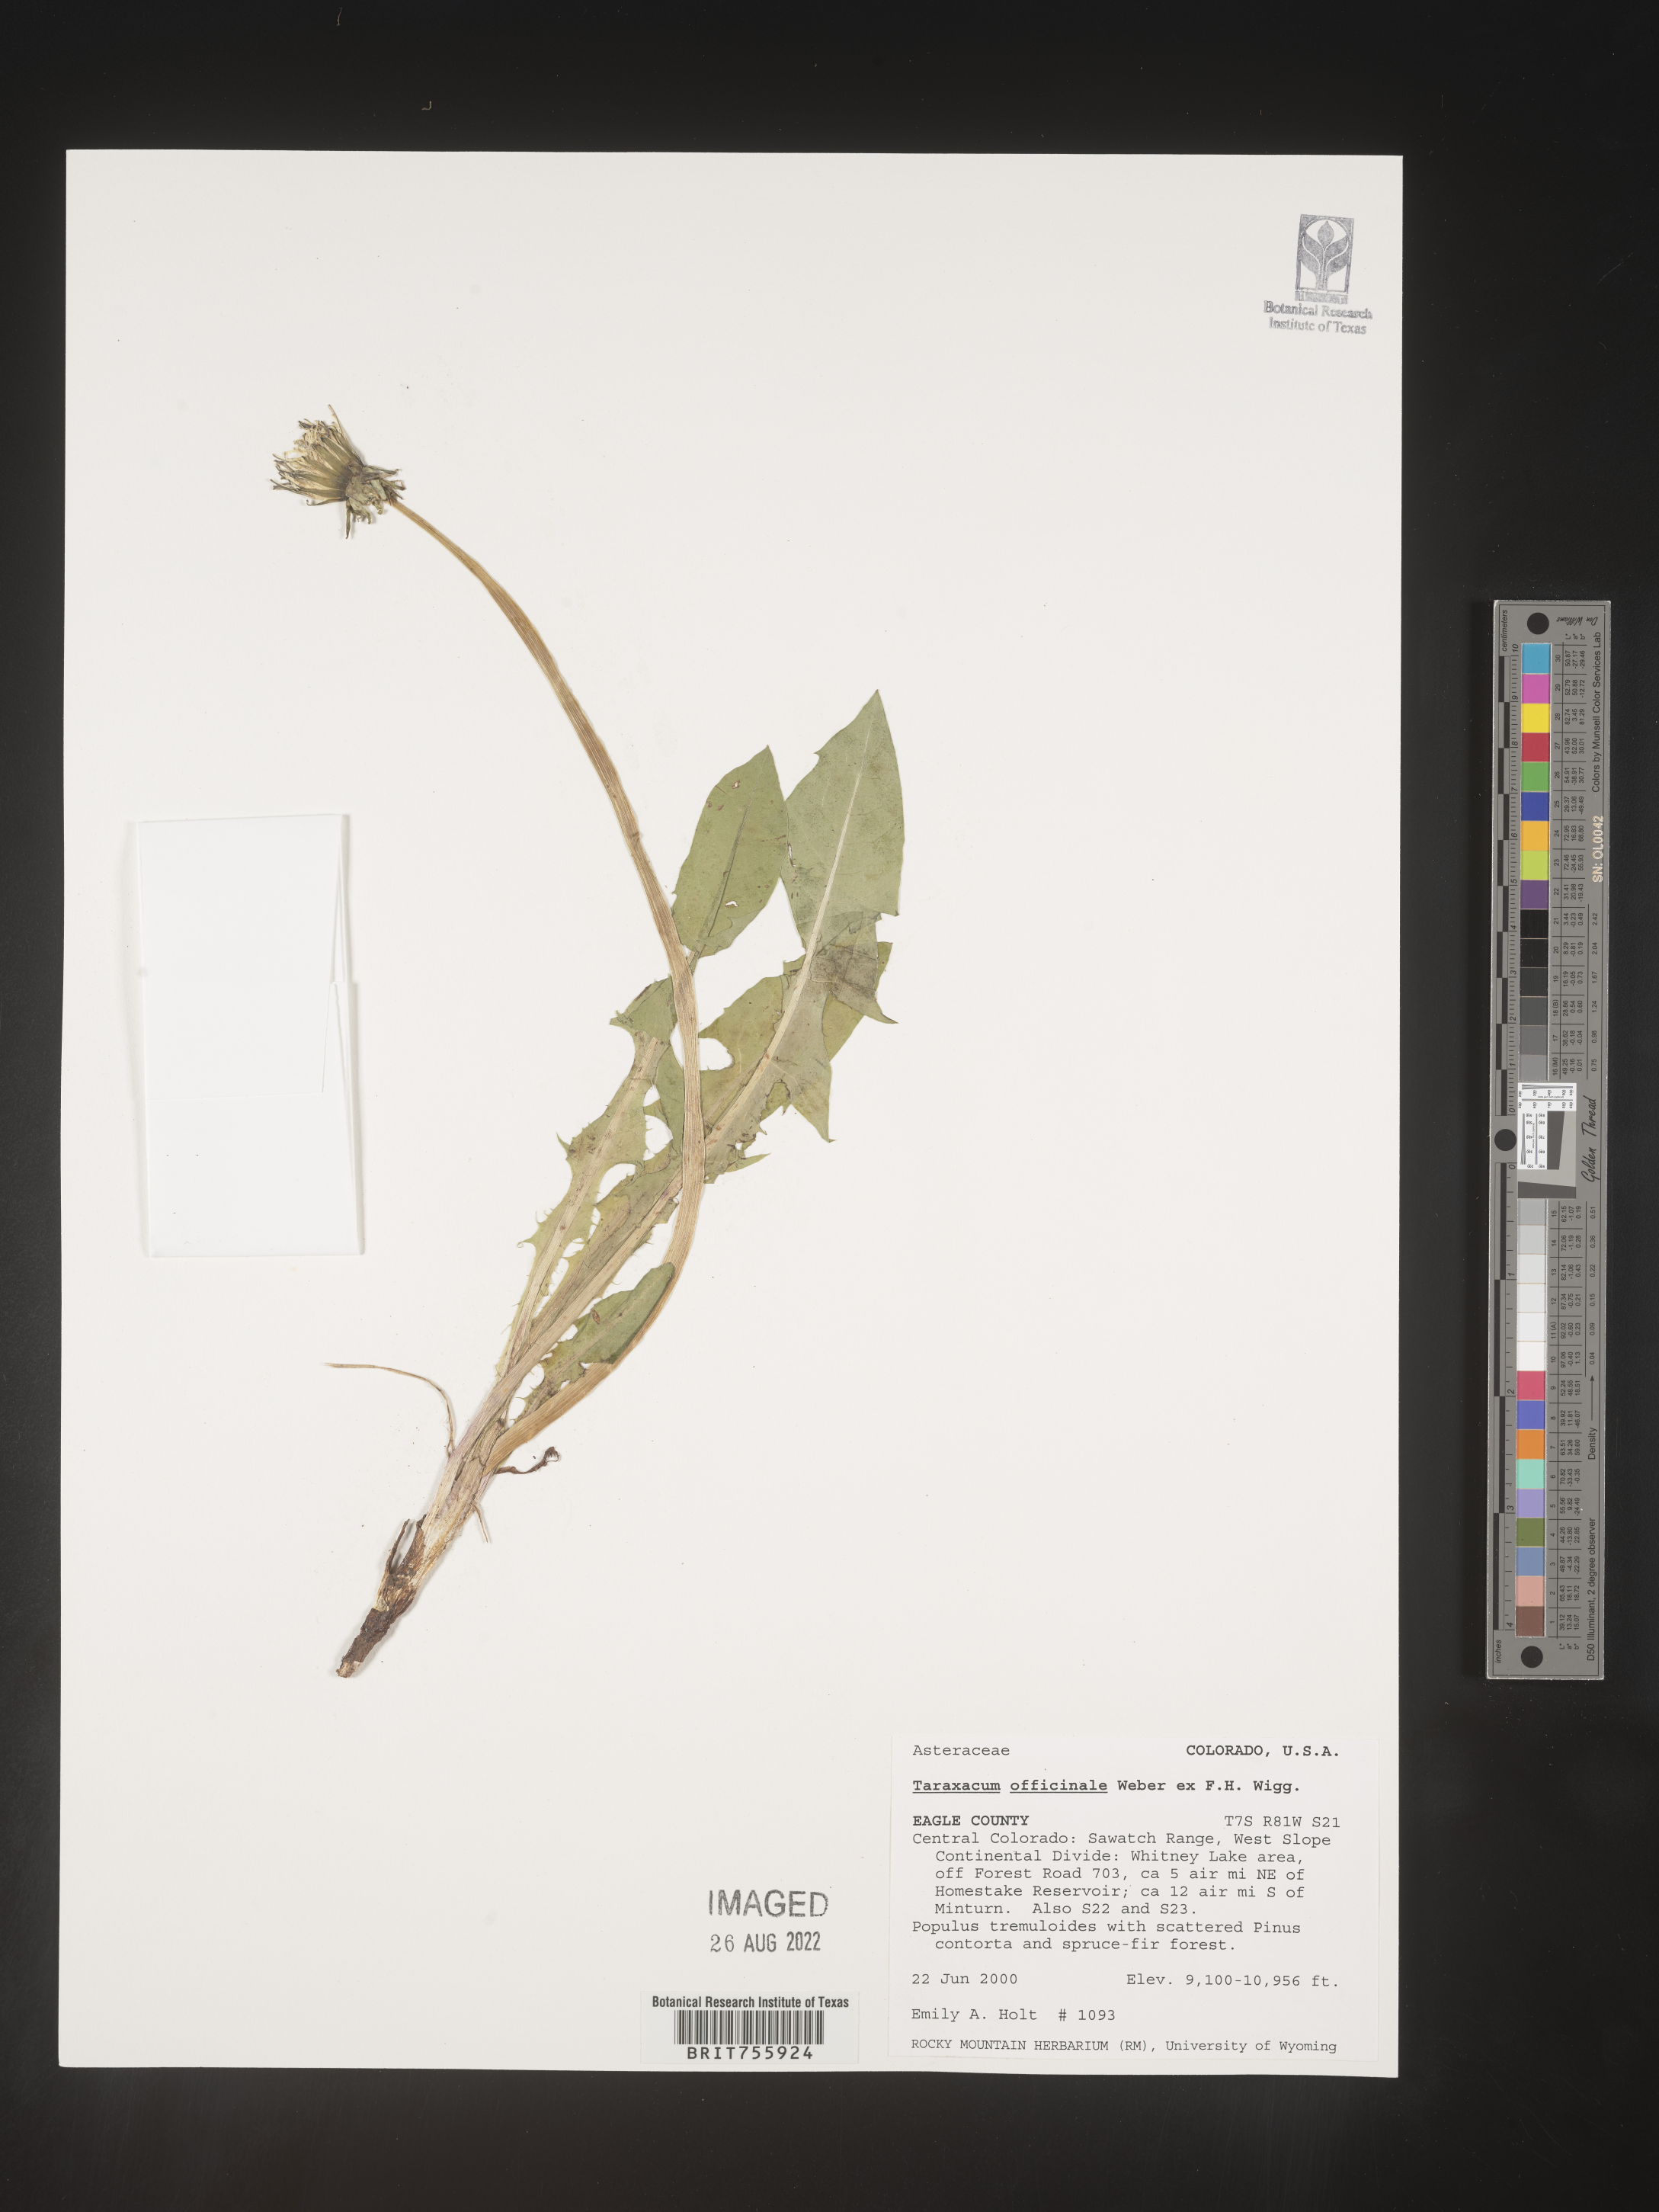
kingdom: Plantae
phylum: Tracheophyta
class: Magnoliopsida
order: Asterales
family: Asteraceae
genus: Taraxacum
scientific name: Taraxacum officinale
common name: Common dandelion
